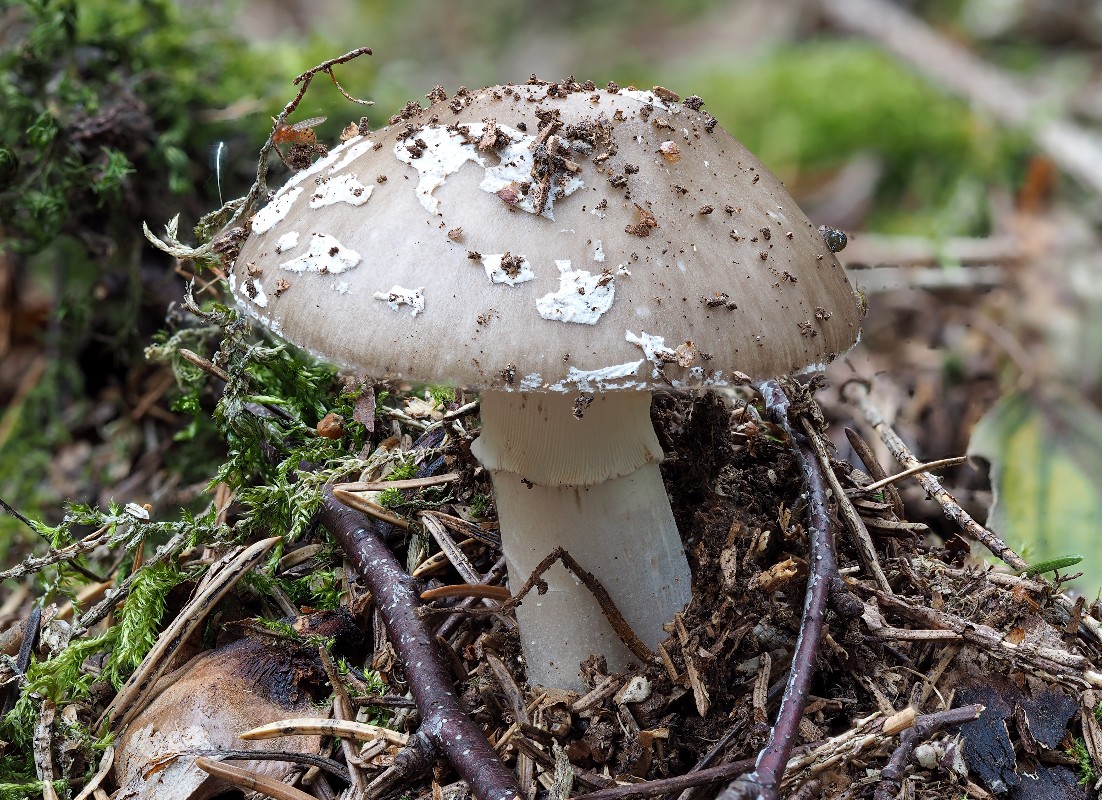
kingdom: Fungi
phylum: Basidiomycota
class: Agaricomycetes
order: Agaricales
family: Amanitaceae
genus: Amanita
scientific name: Amanita
